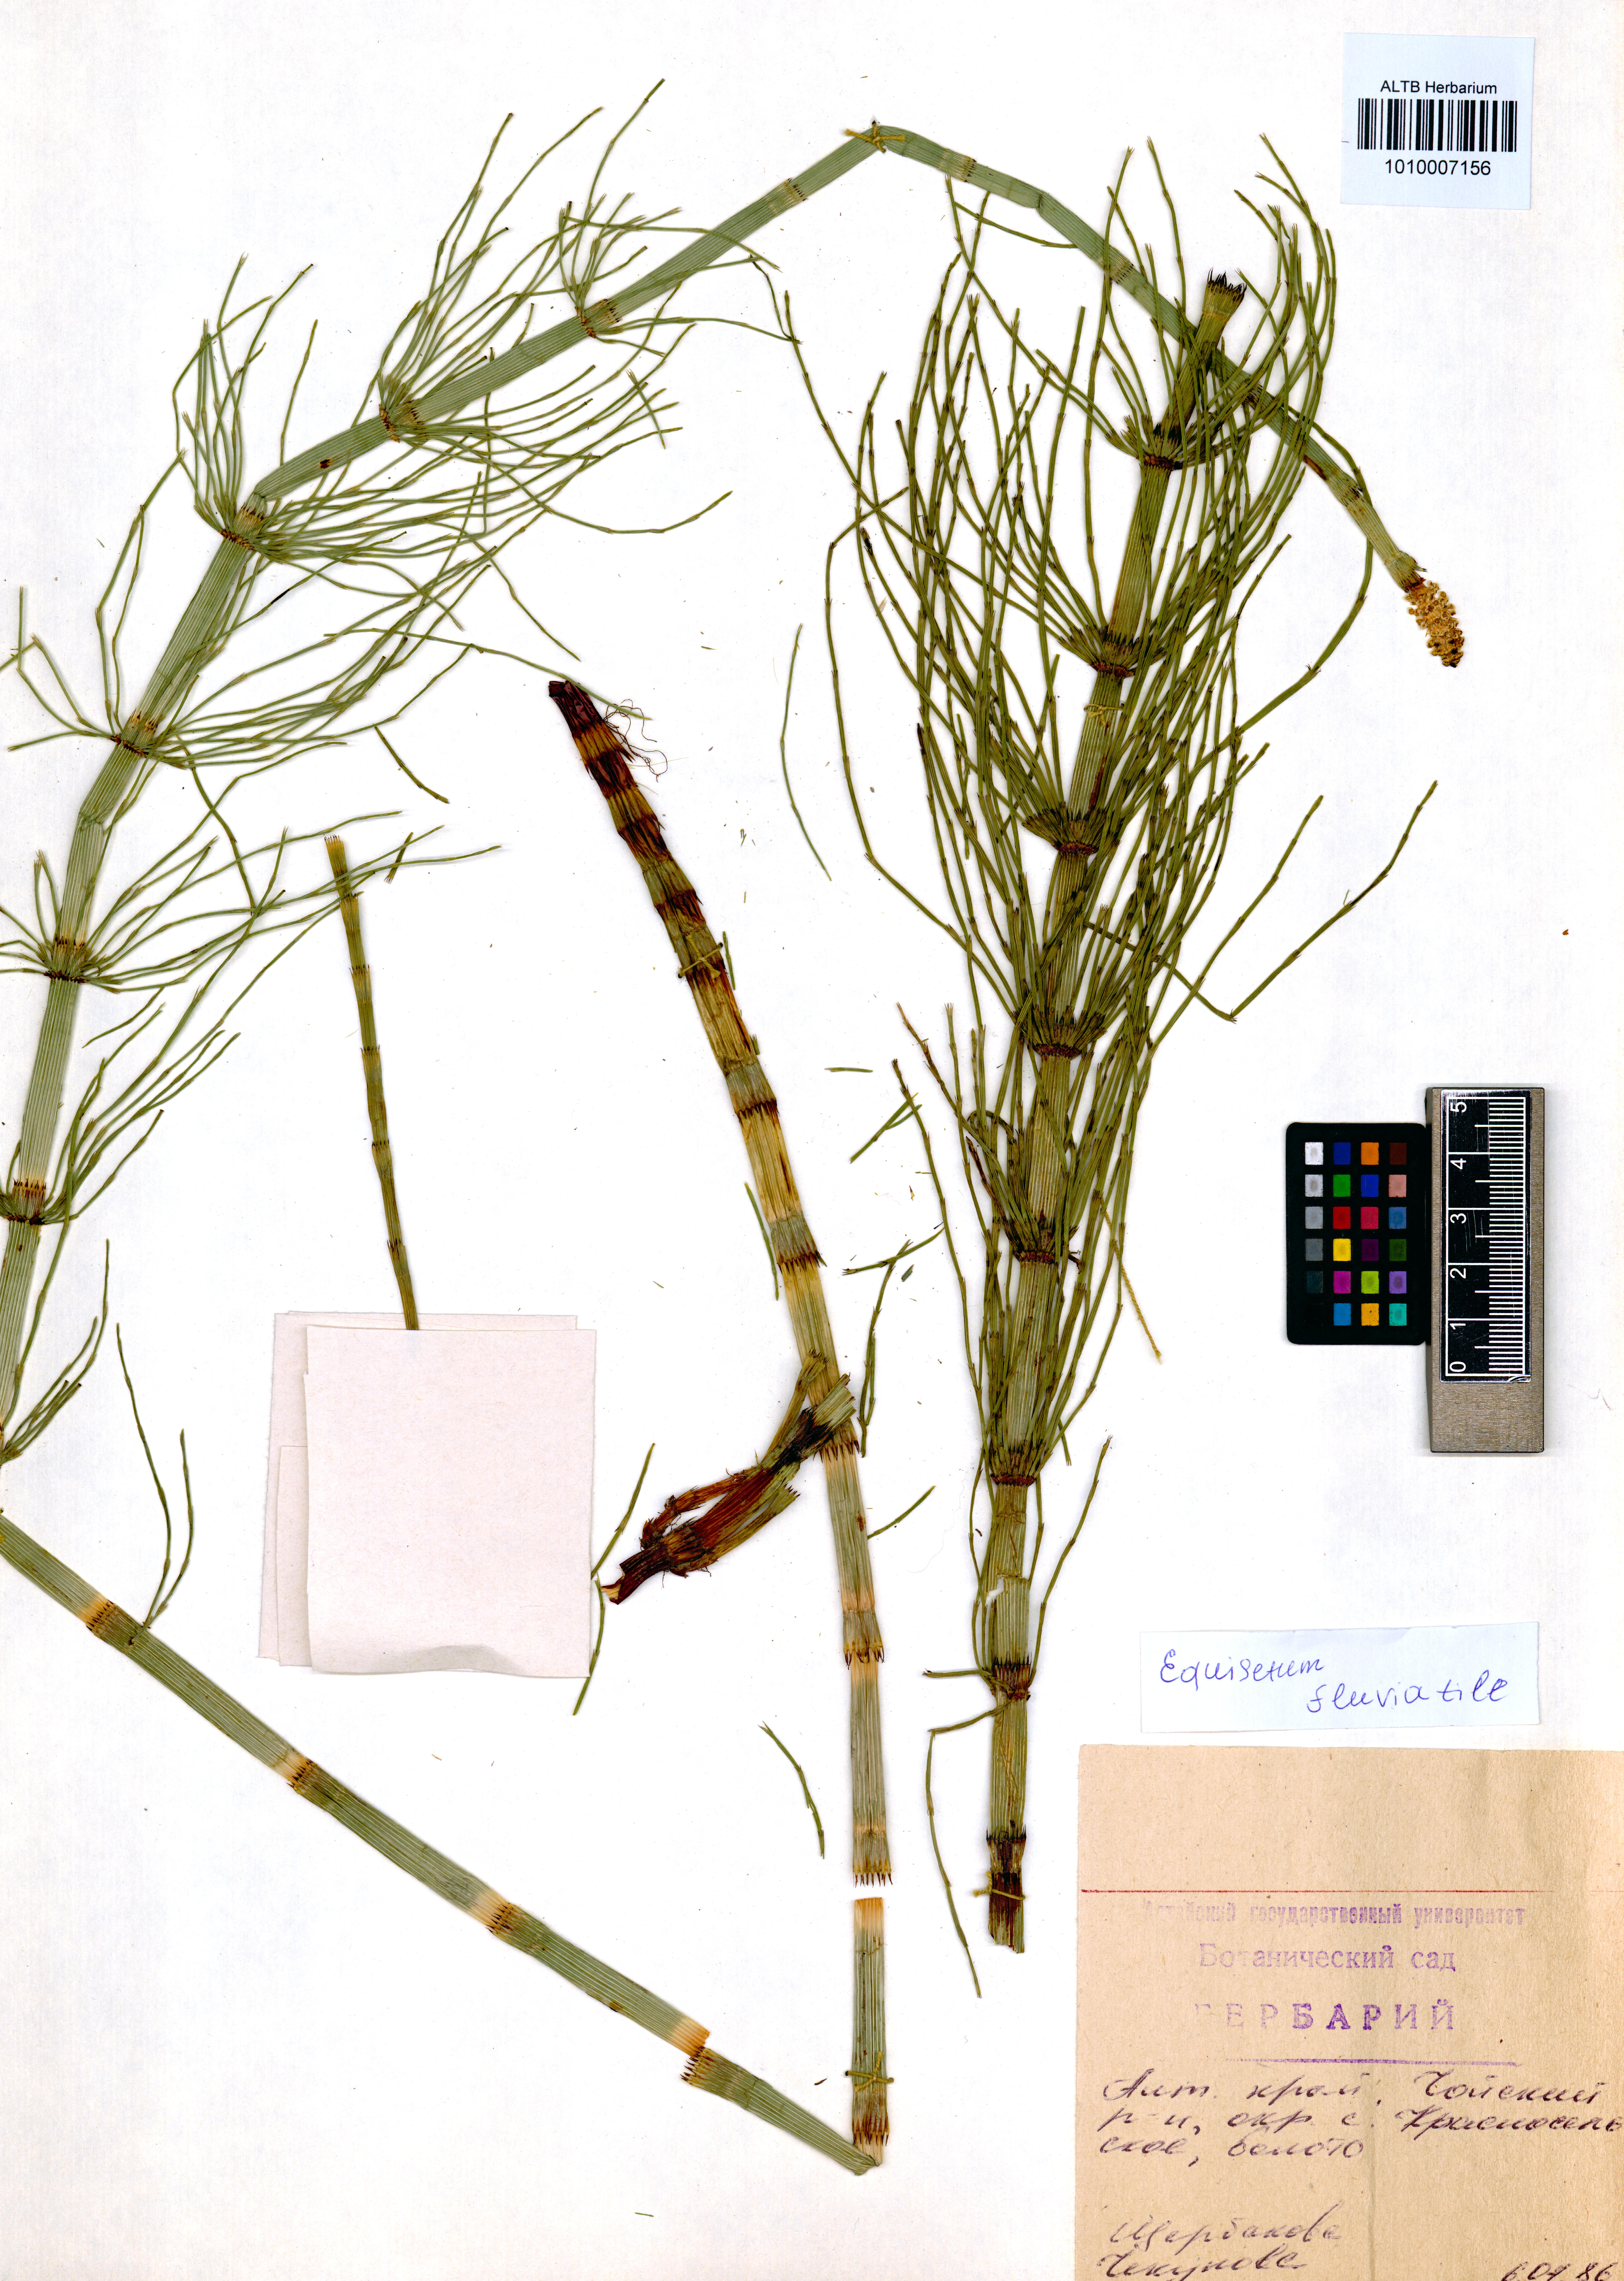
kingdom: Plantae
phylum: Tracheophyta
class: Polypodiopsida
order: Equisetales
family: Equisetaceae
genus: Equisetum
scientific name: Equisetum fluviatile
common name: Water horsetail
